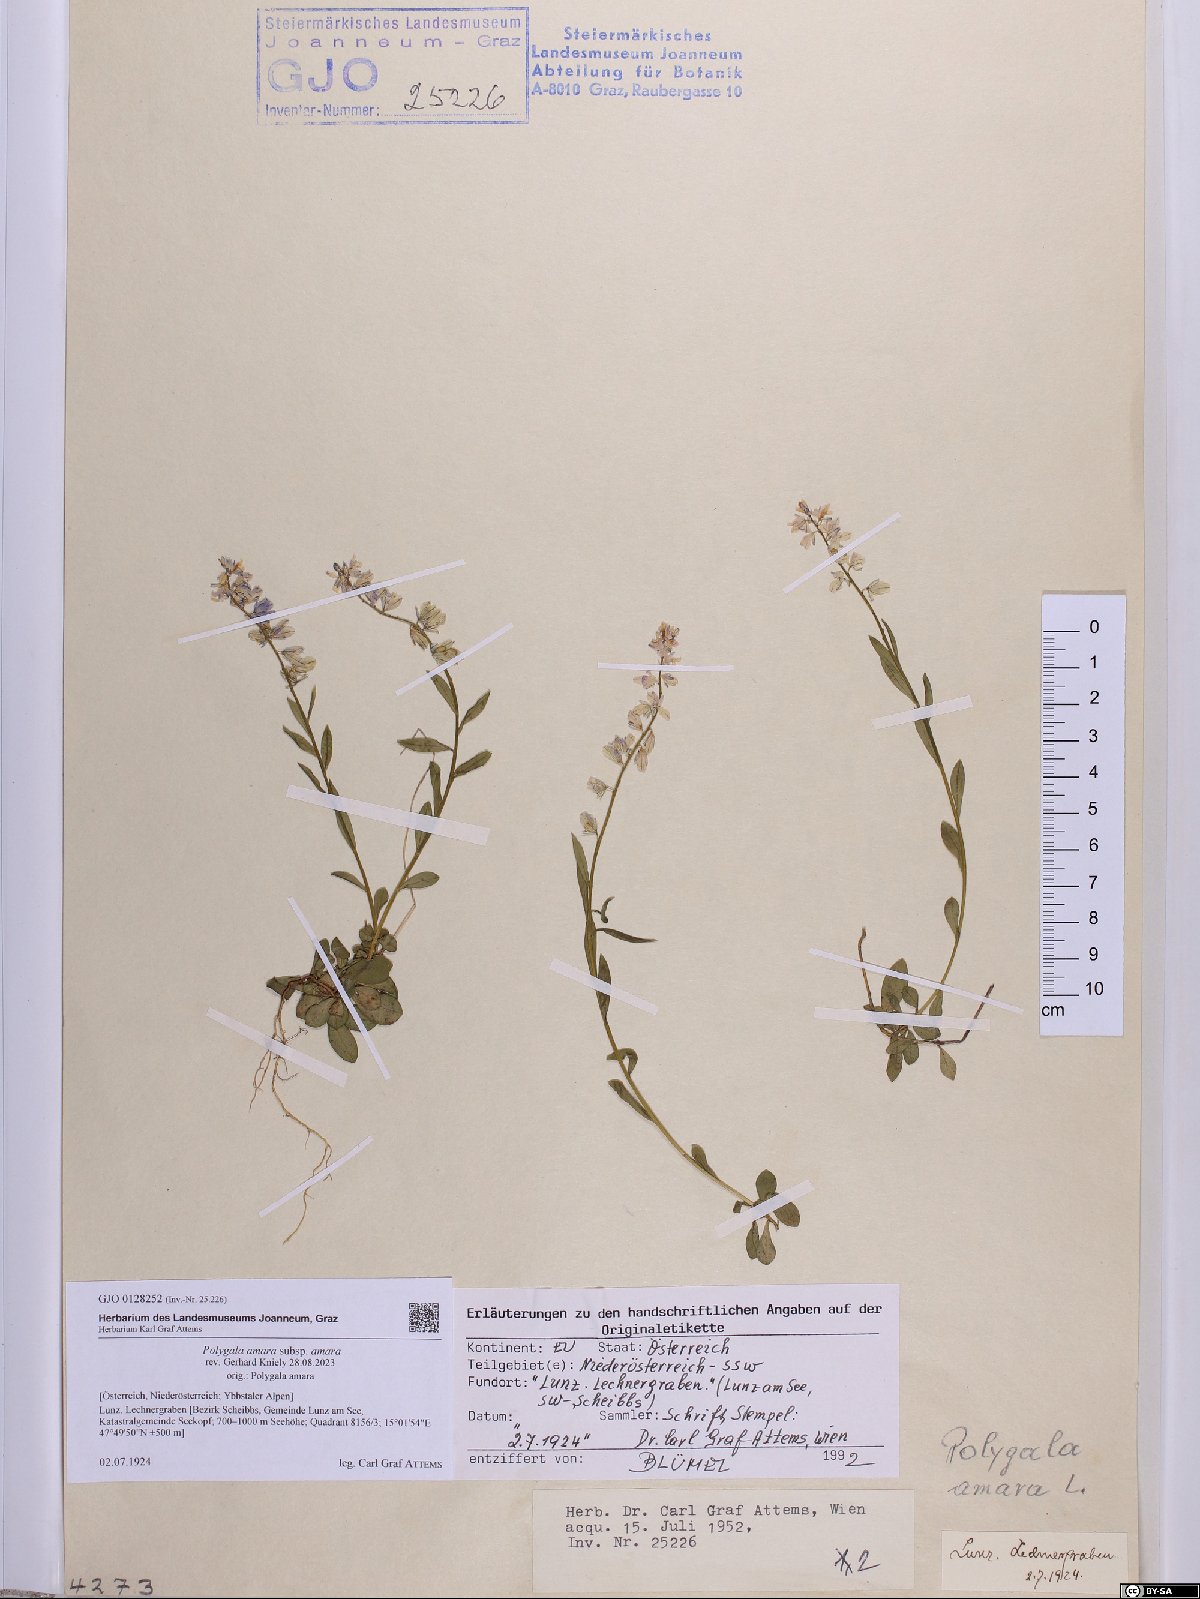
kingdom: Plantae
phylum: Tracheophyta
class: Magnoliopsida
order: Fabales
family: Polygalaceae
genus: Polygala
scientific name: Polygala amara
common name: Milkwort
